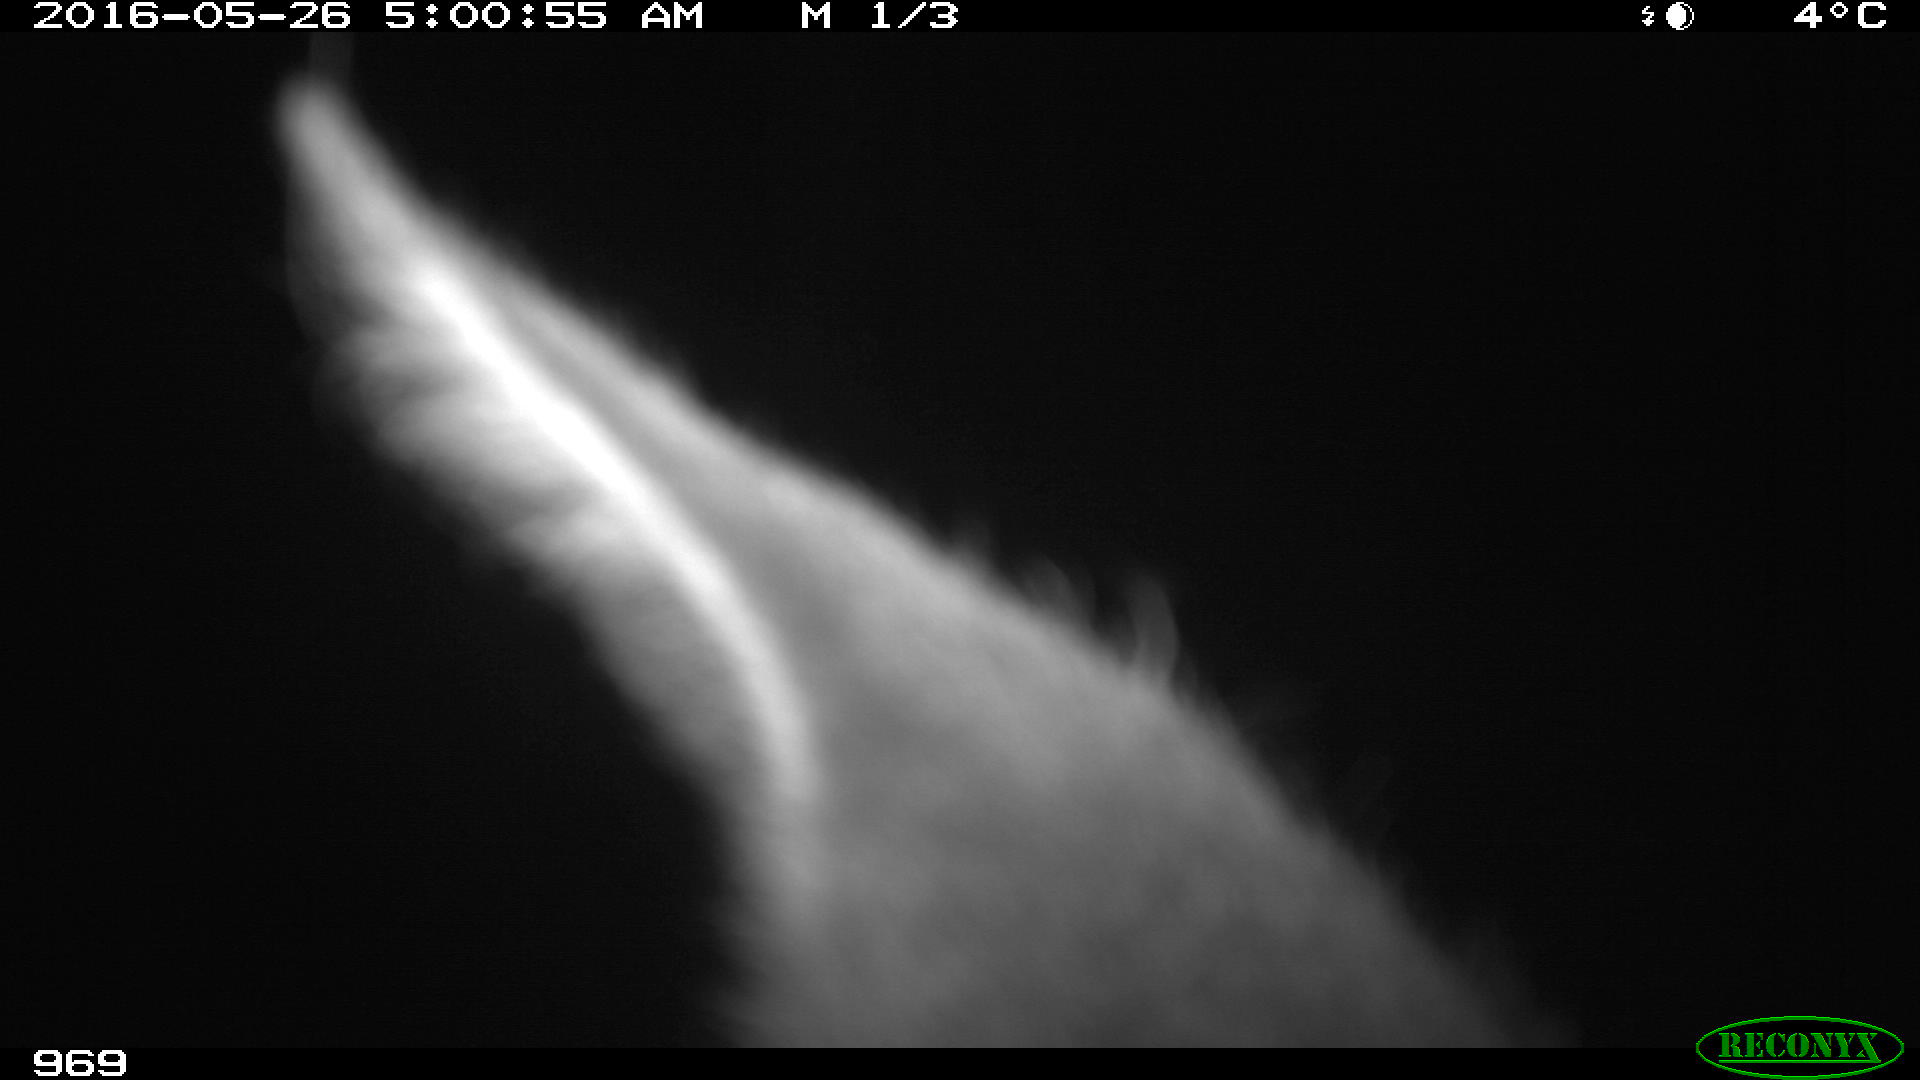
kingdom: Animalia
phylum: Chordata
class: Mammalia
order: Perissodactyla
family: Equidae
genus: Equus
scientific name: Equus caballus
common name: Horse
